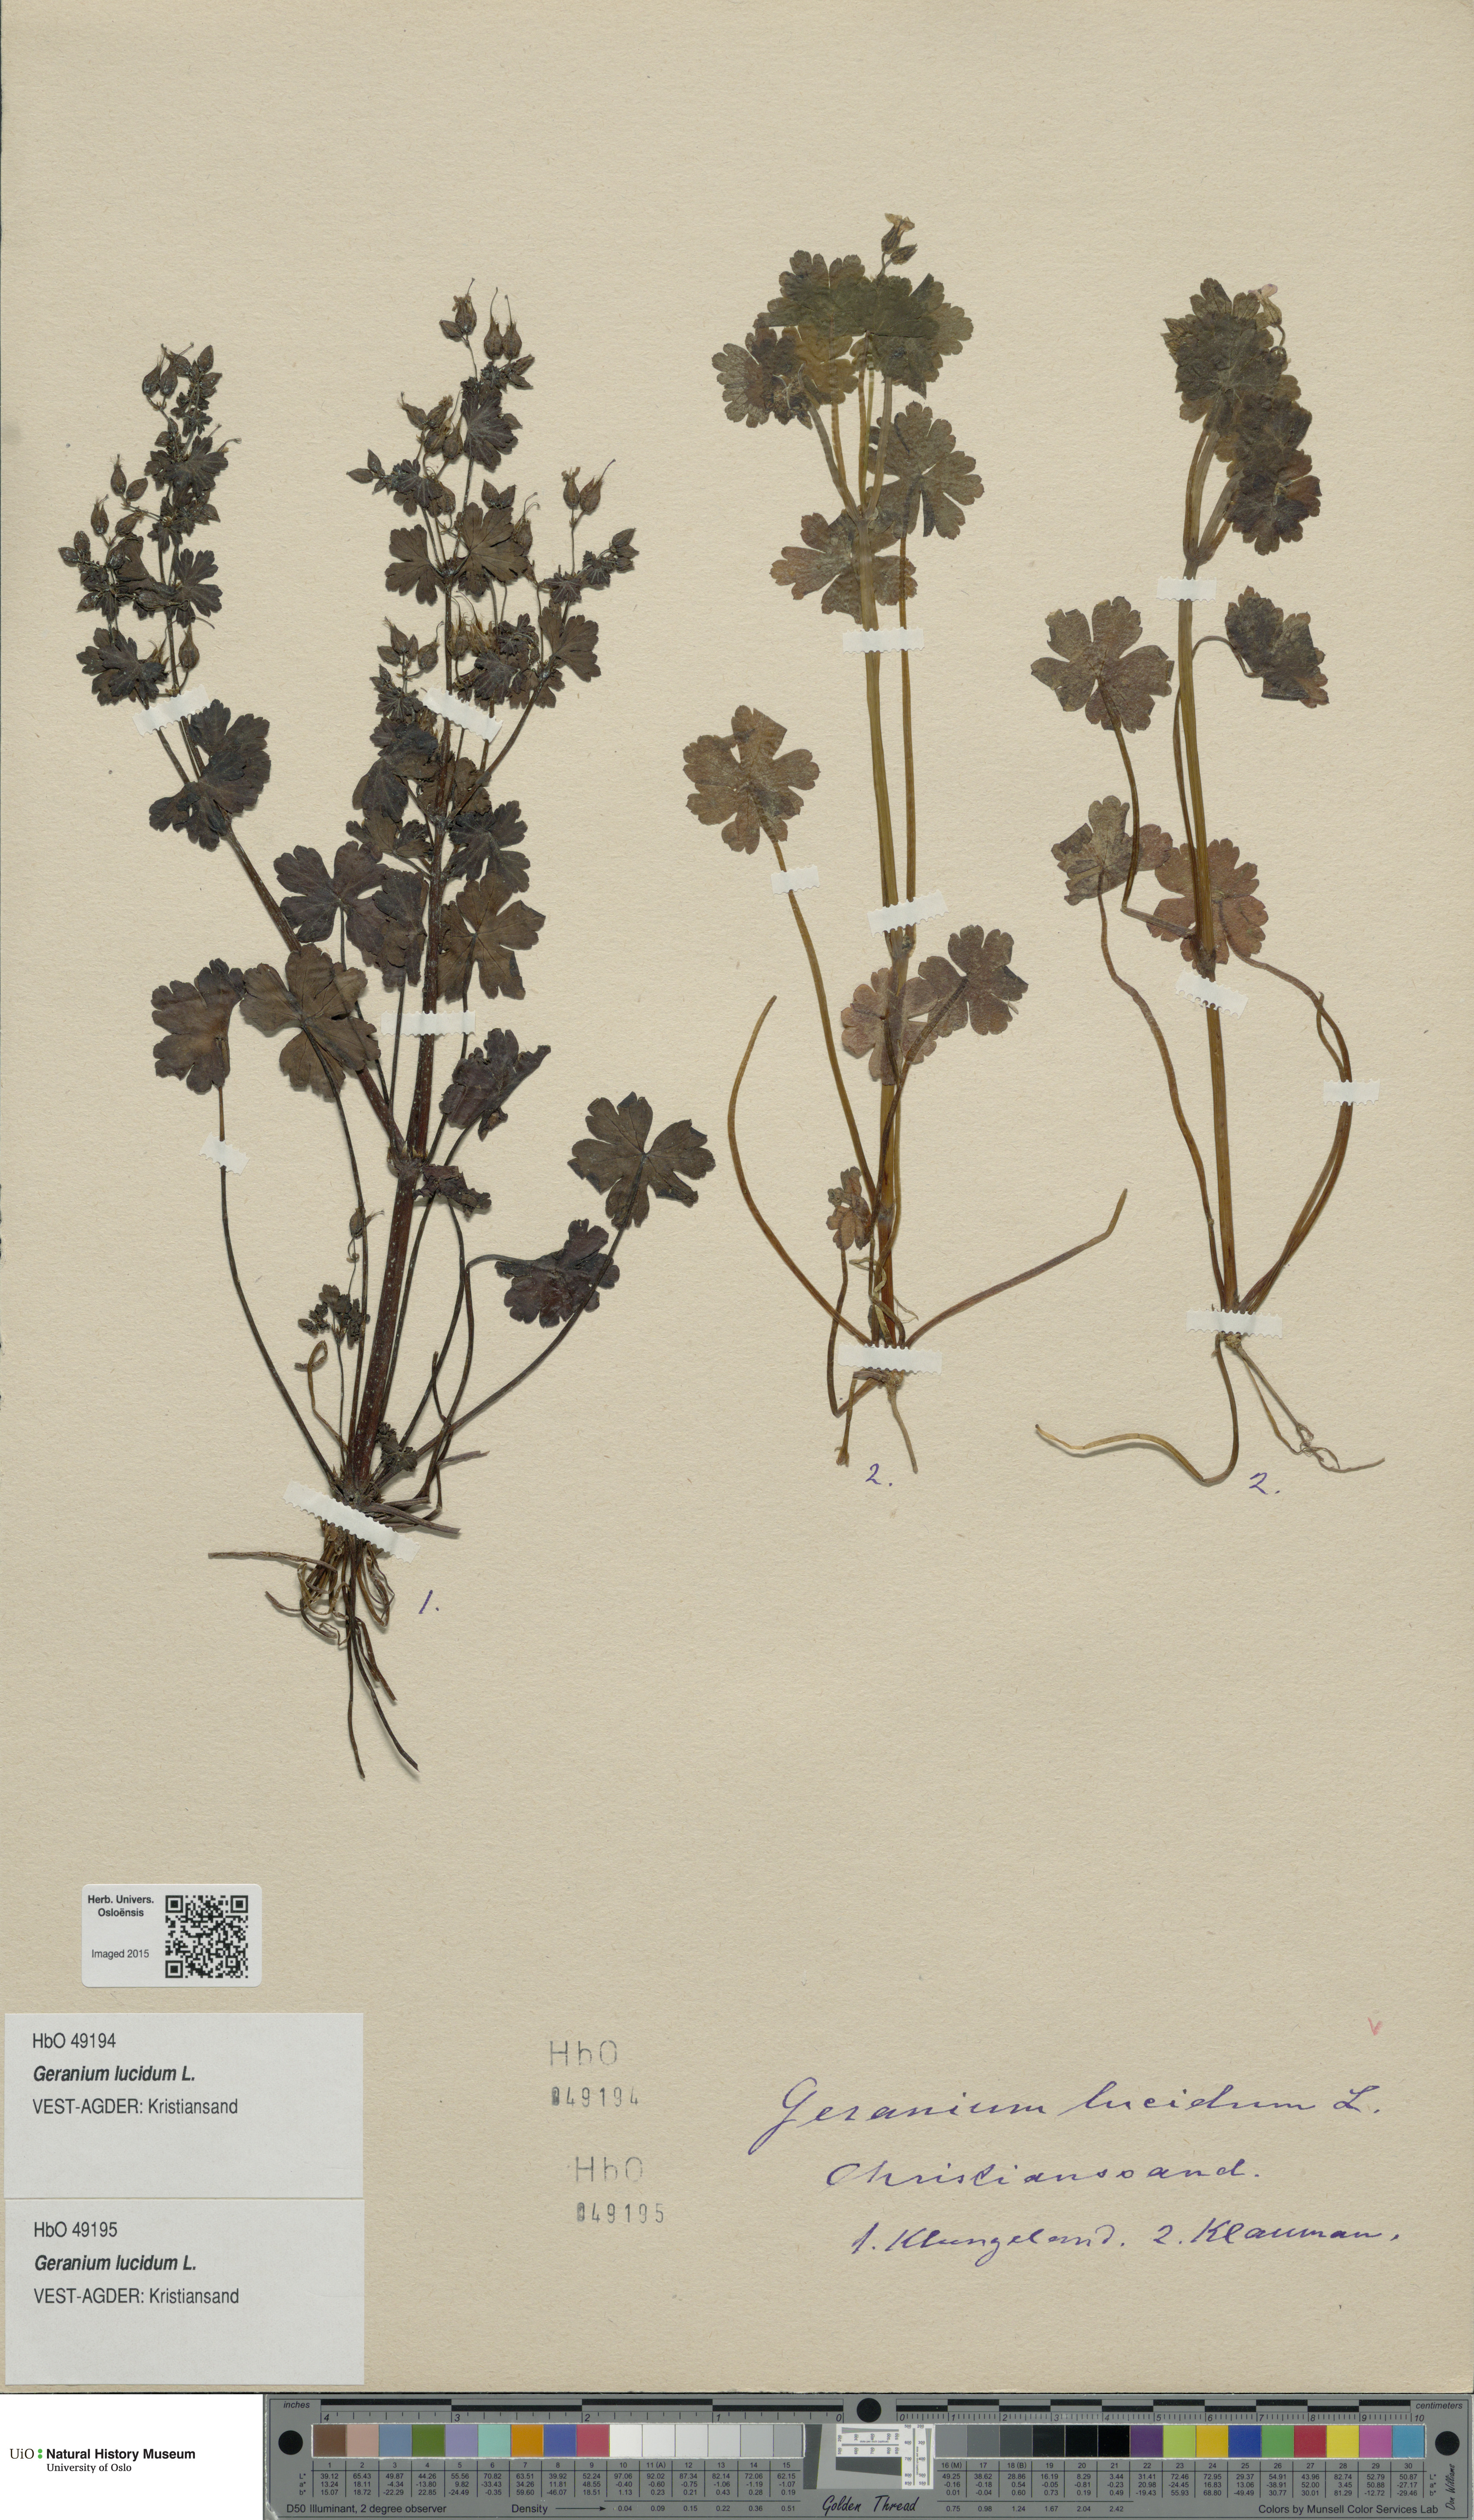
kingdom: Plantae
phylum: Tracheophyta
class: Magnoliopsida
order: Geraniales
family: Geraniaceae
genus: Geranium
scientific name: Geranium lucidum
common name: Shining crane's-bill
